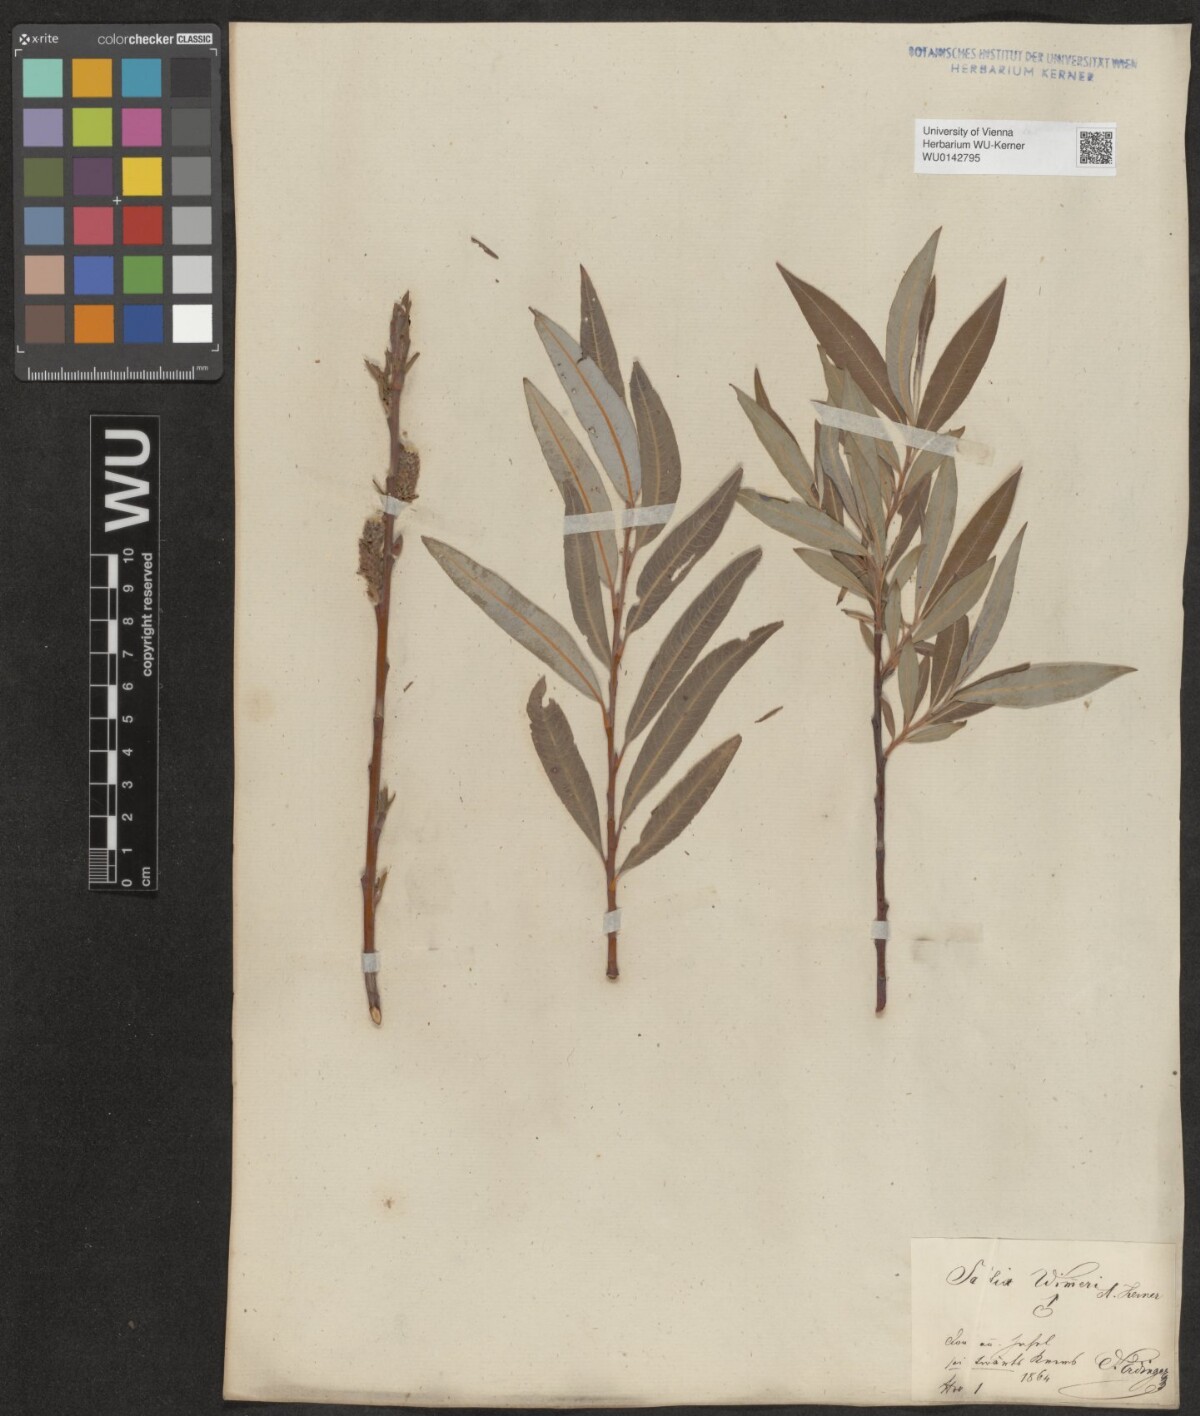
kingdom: Plantae
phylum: Tracheophyta
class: Magnoliopsida
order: Malpighiales
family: Salicaceae
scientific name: Salicaceae
